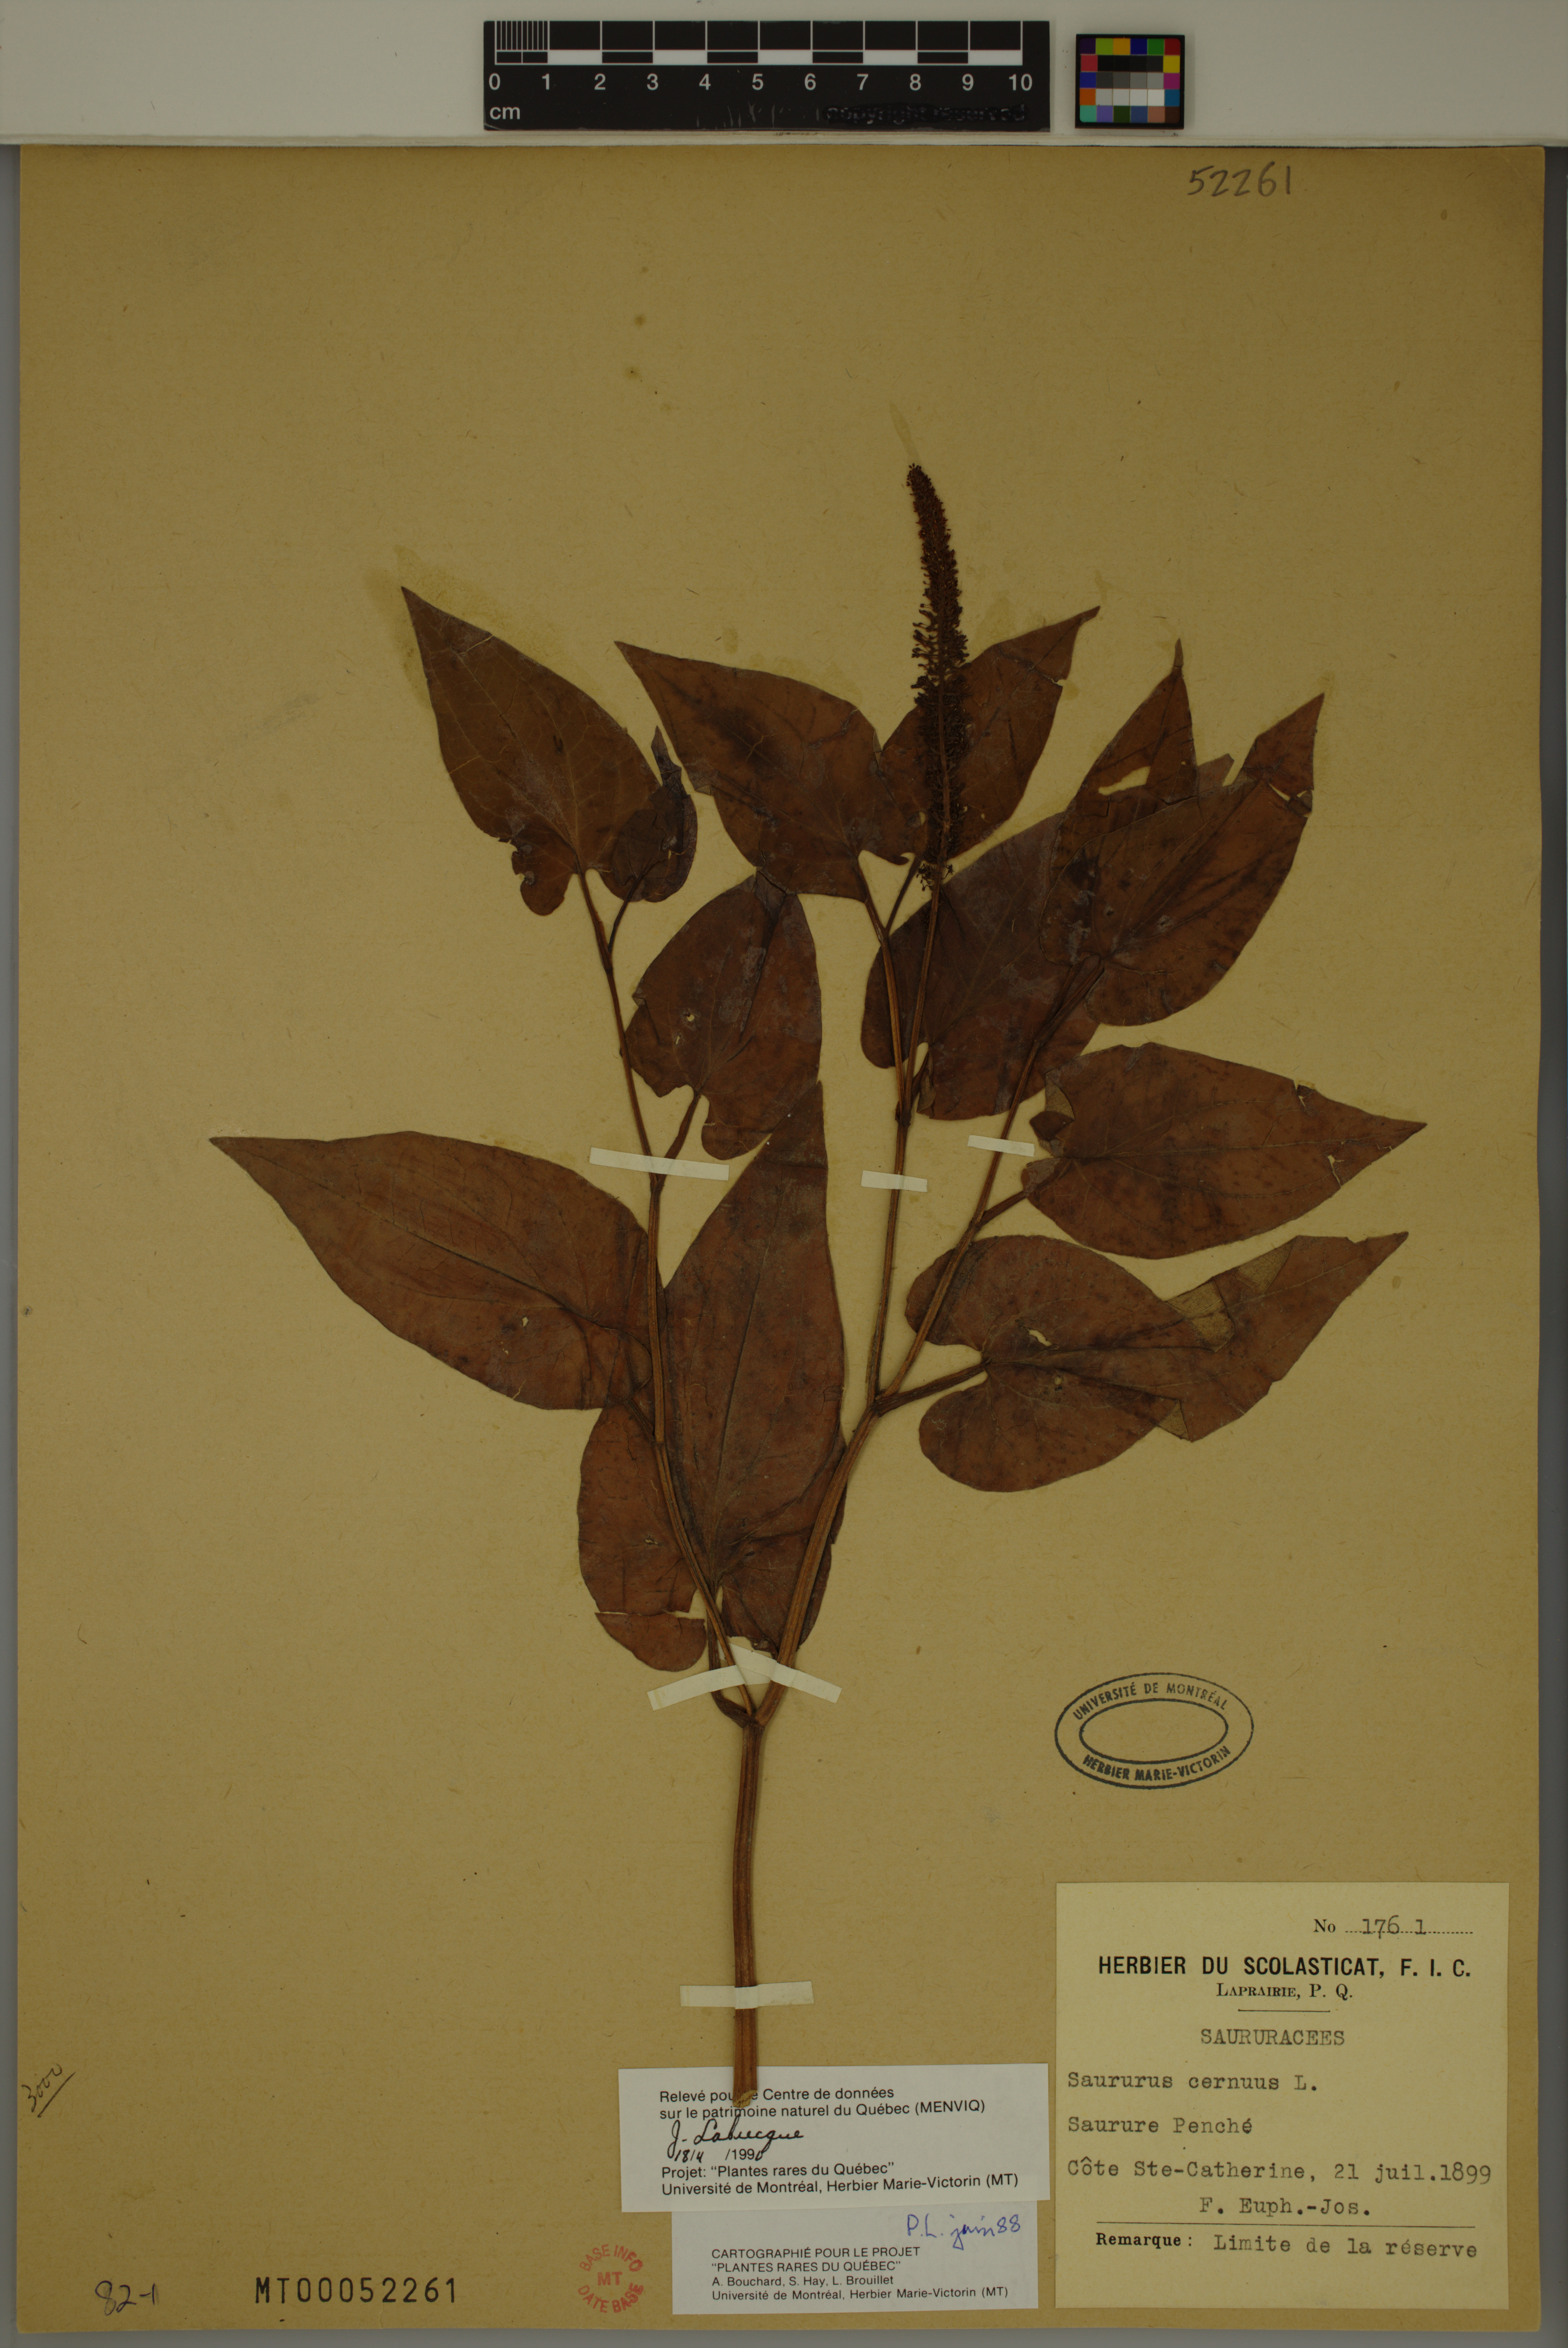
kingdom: Plantae
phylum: Tracheophyta
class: Magnoliopsida
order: Piperales
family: Saururaceae
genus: Saururus
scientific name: Saururus cernuus
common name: Lizard's-tail
